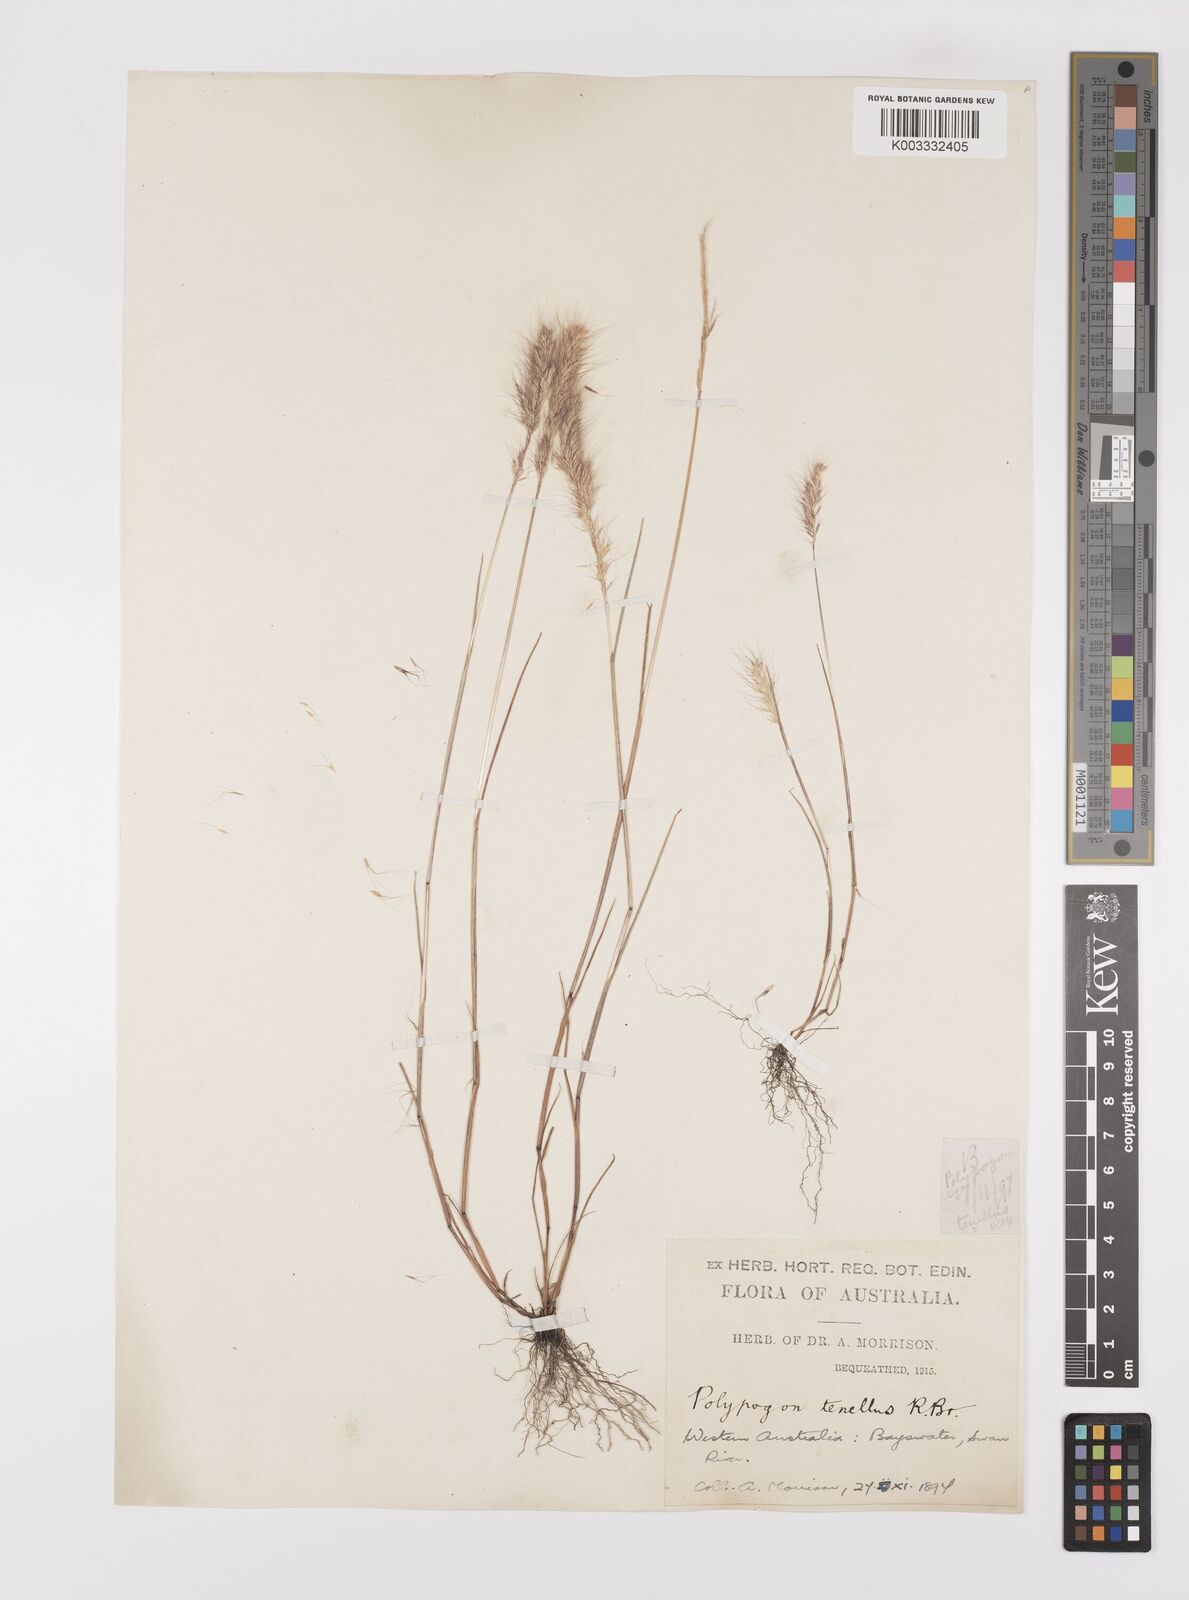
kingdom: Plantae
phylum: Tracheophyta
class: Liliopsida
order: Poales
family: Poaceae
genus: Polypogon
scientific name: Polypogon tenellus
